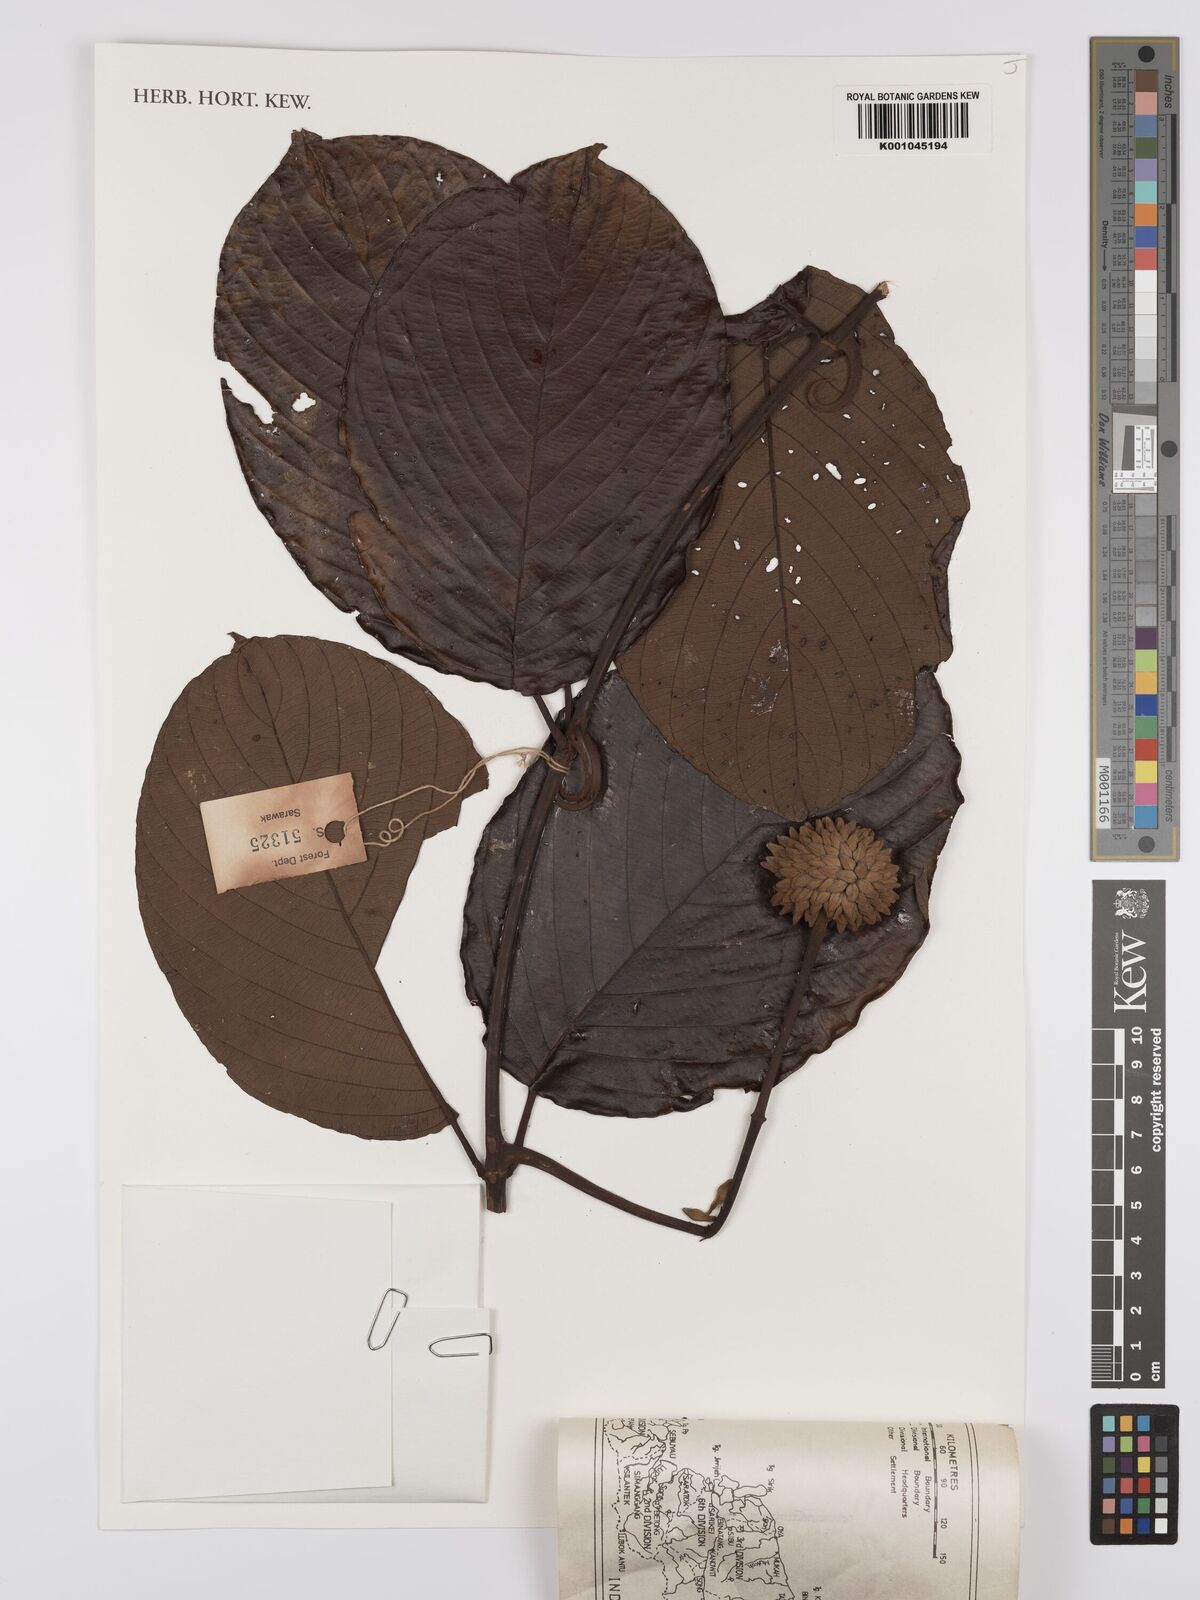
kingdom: Plantae
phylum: Tracheophyta
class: Magnoliopsida
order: Gentianales
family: Rubiaceae
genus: Uncaria
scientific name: Uncaria
